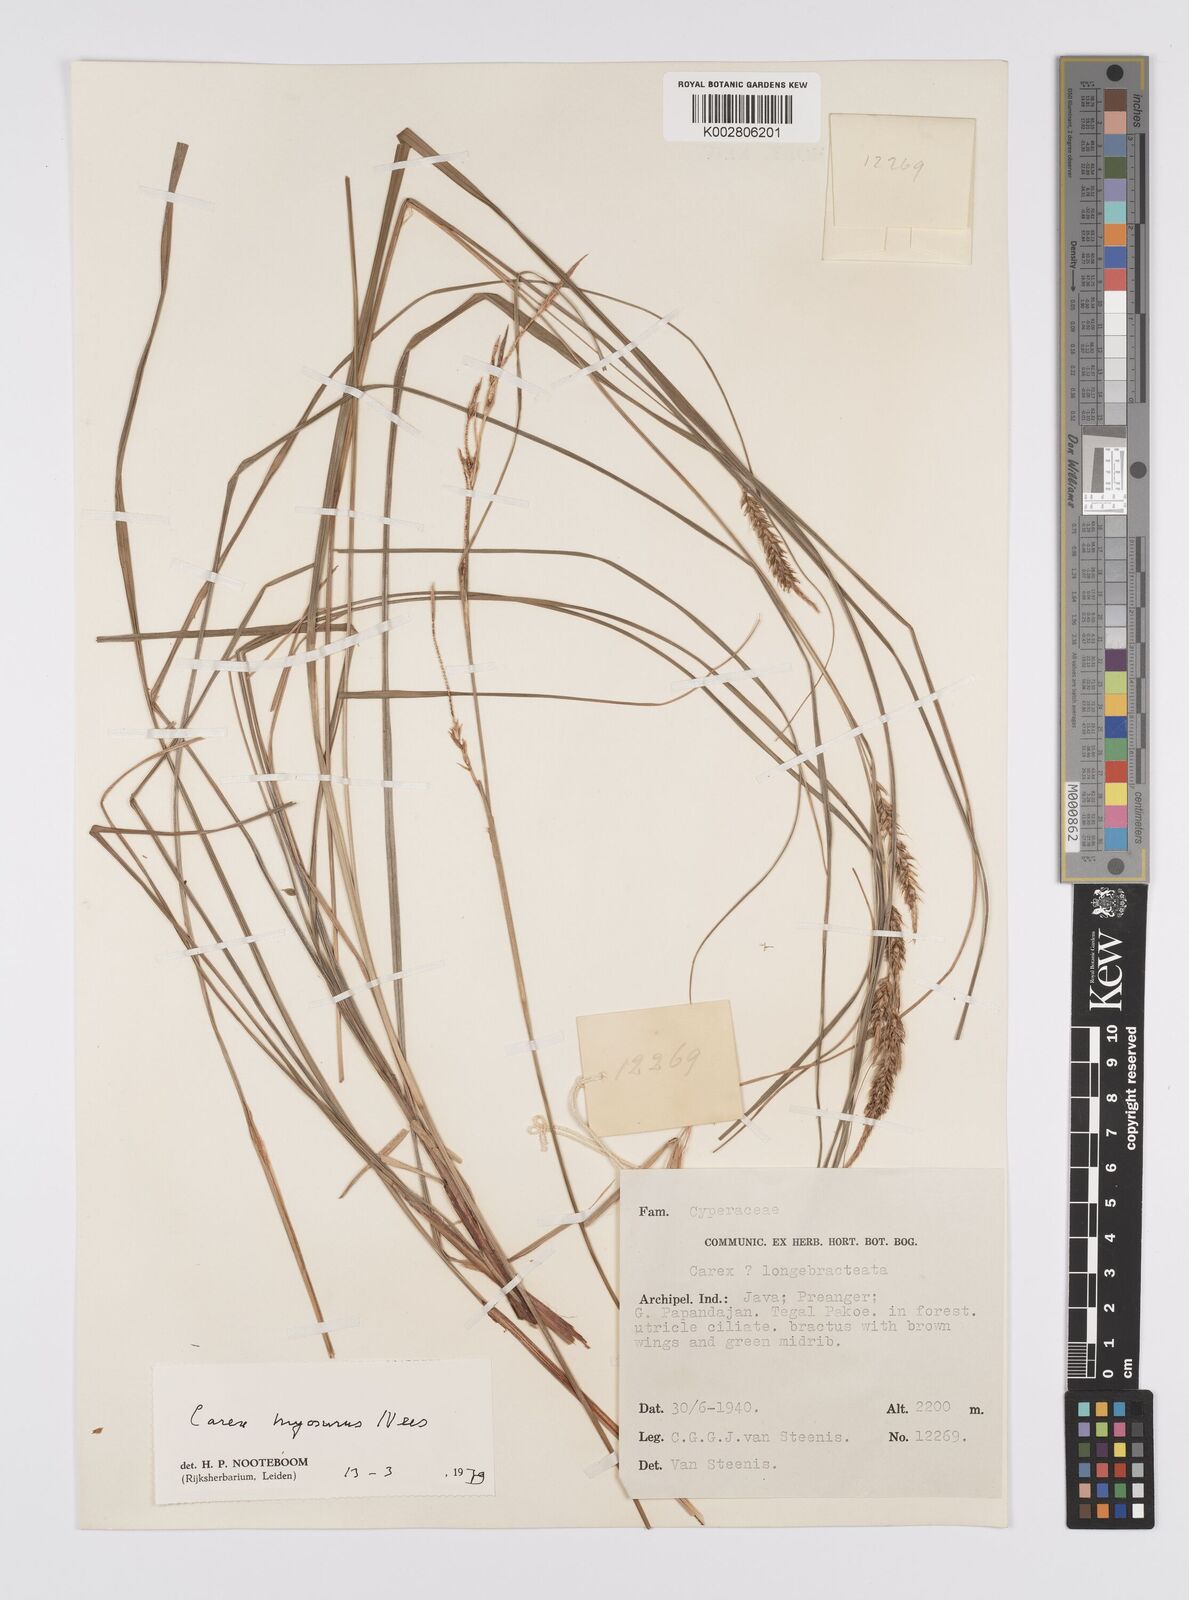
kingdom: Plantae
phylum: Tracheophyta
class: Liliopsida
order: Poales
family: Cyperaceae
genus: Carex
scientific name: Carex myosurus
